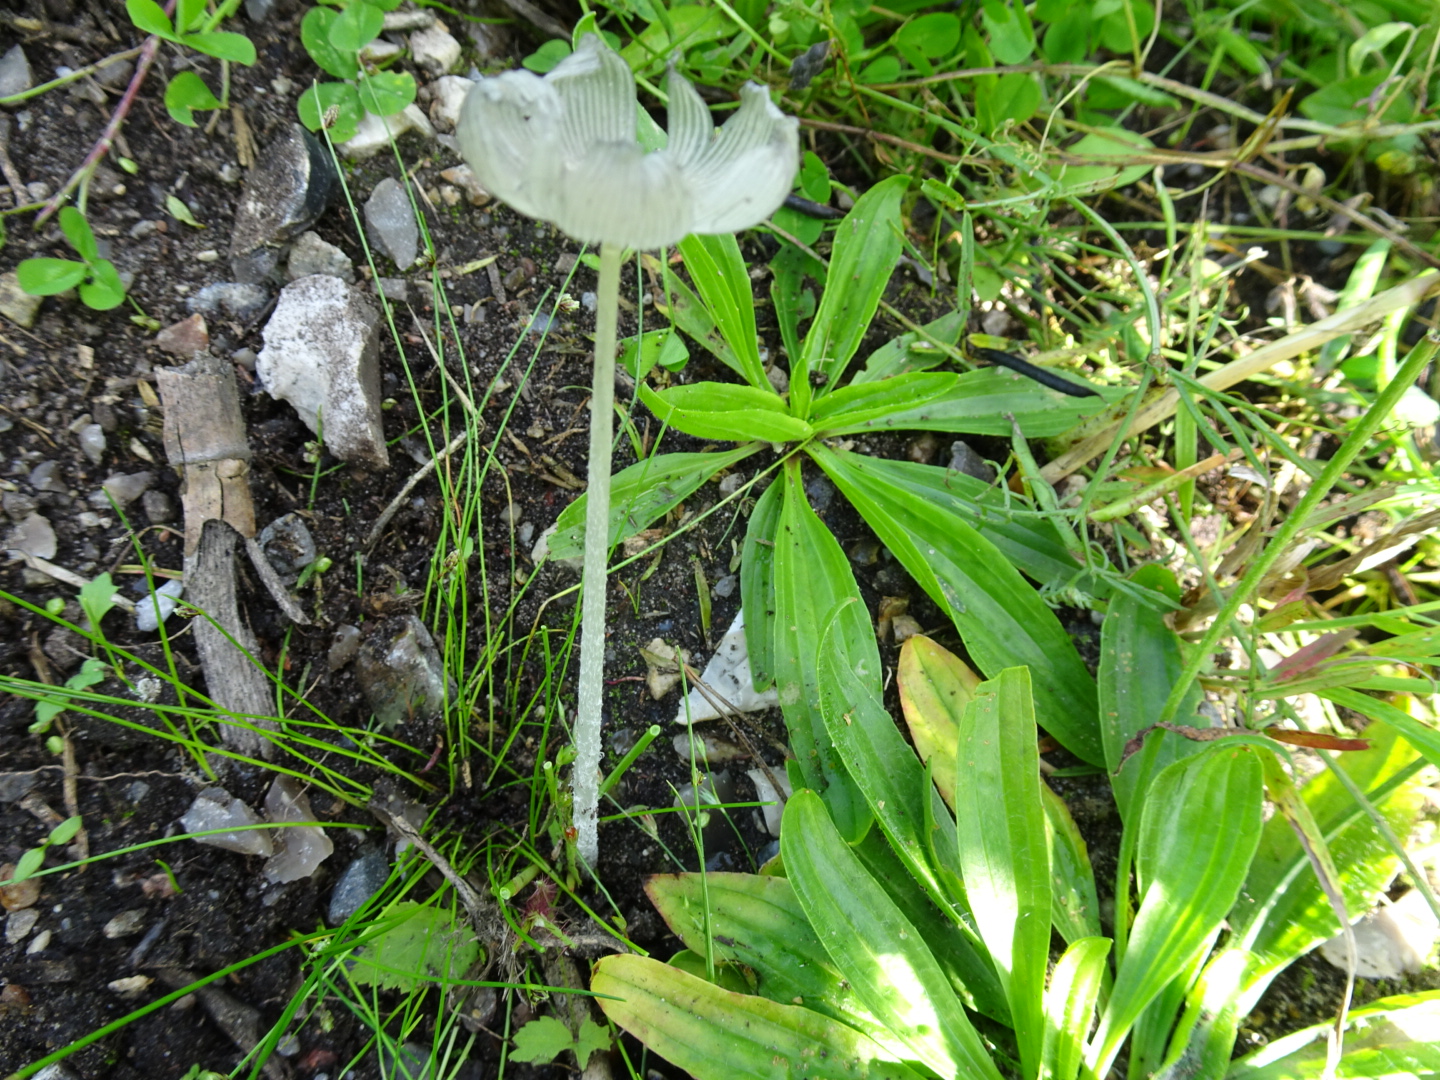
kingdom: Fungi
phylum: Basidiomycota
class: Agaricomycetes
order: Agaricales
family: Psathyrellaceae
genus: Coprinopsis
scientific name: Coprinopsis lagopus
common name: dunstokket blækhat
